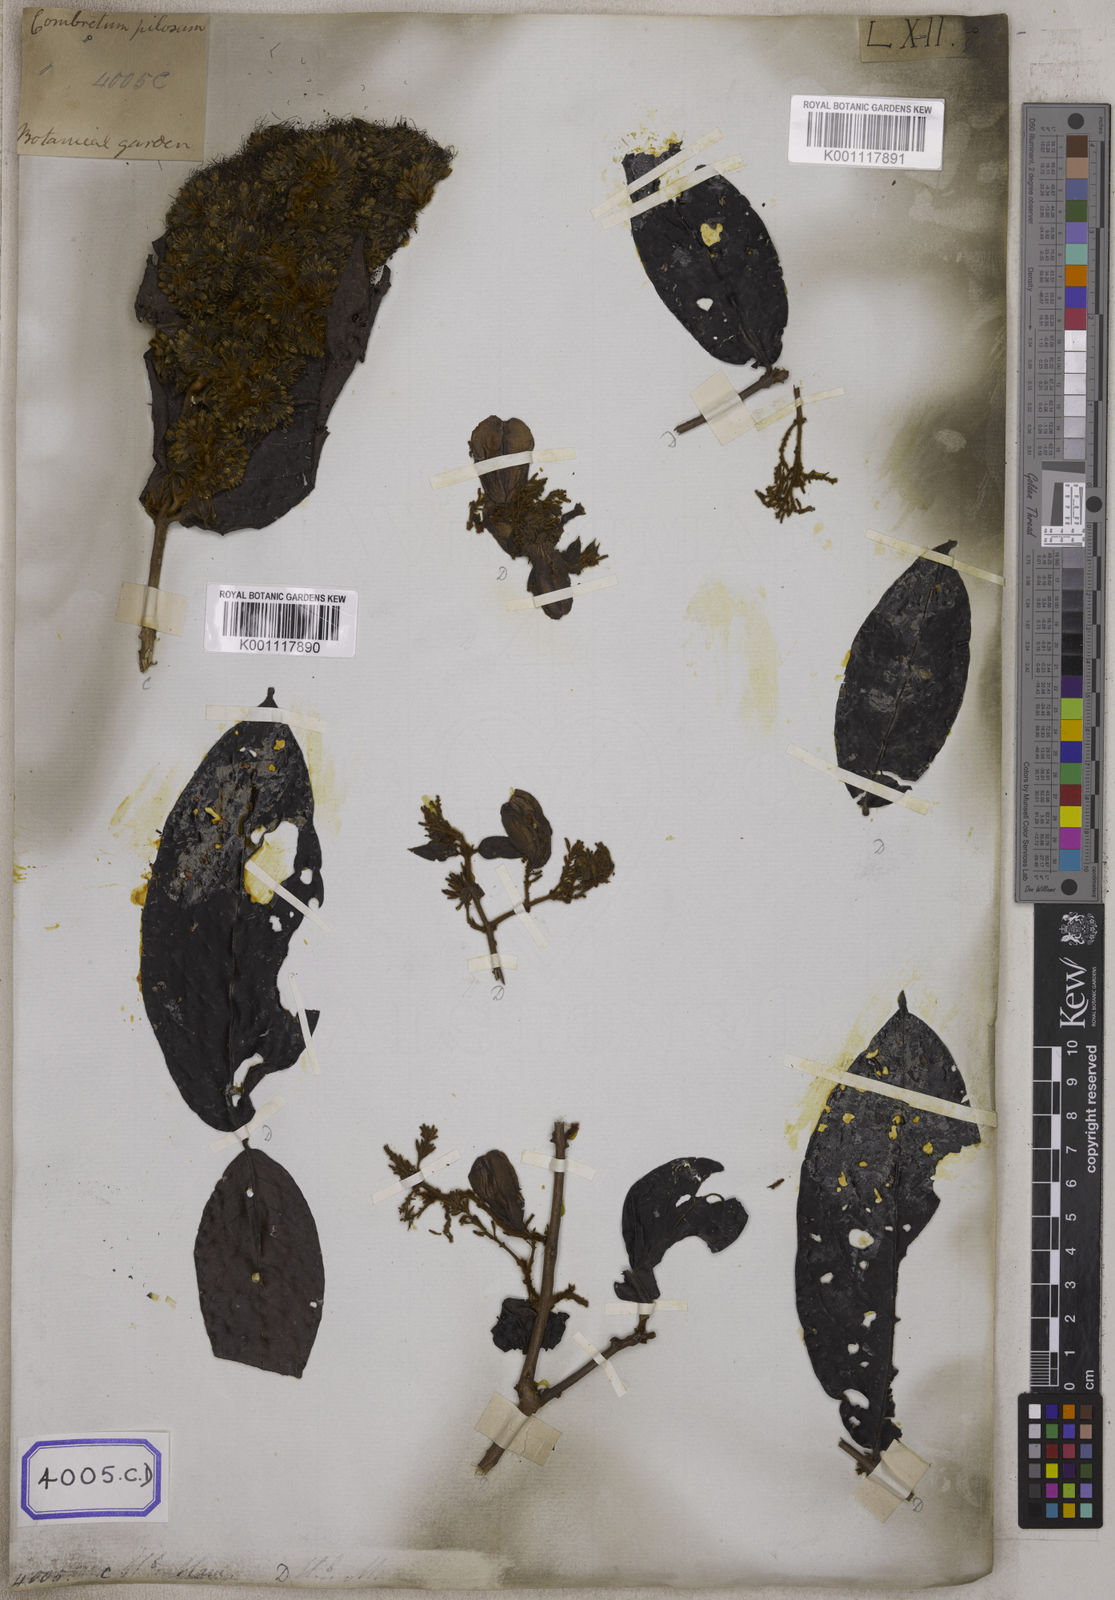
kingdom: Plantae
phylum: Tracheophyta
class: Magnoliopsida
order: Myrtales
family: Combretaceae
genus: Combretum
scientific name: Combretum
